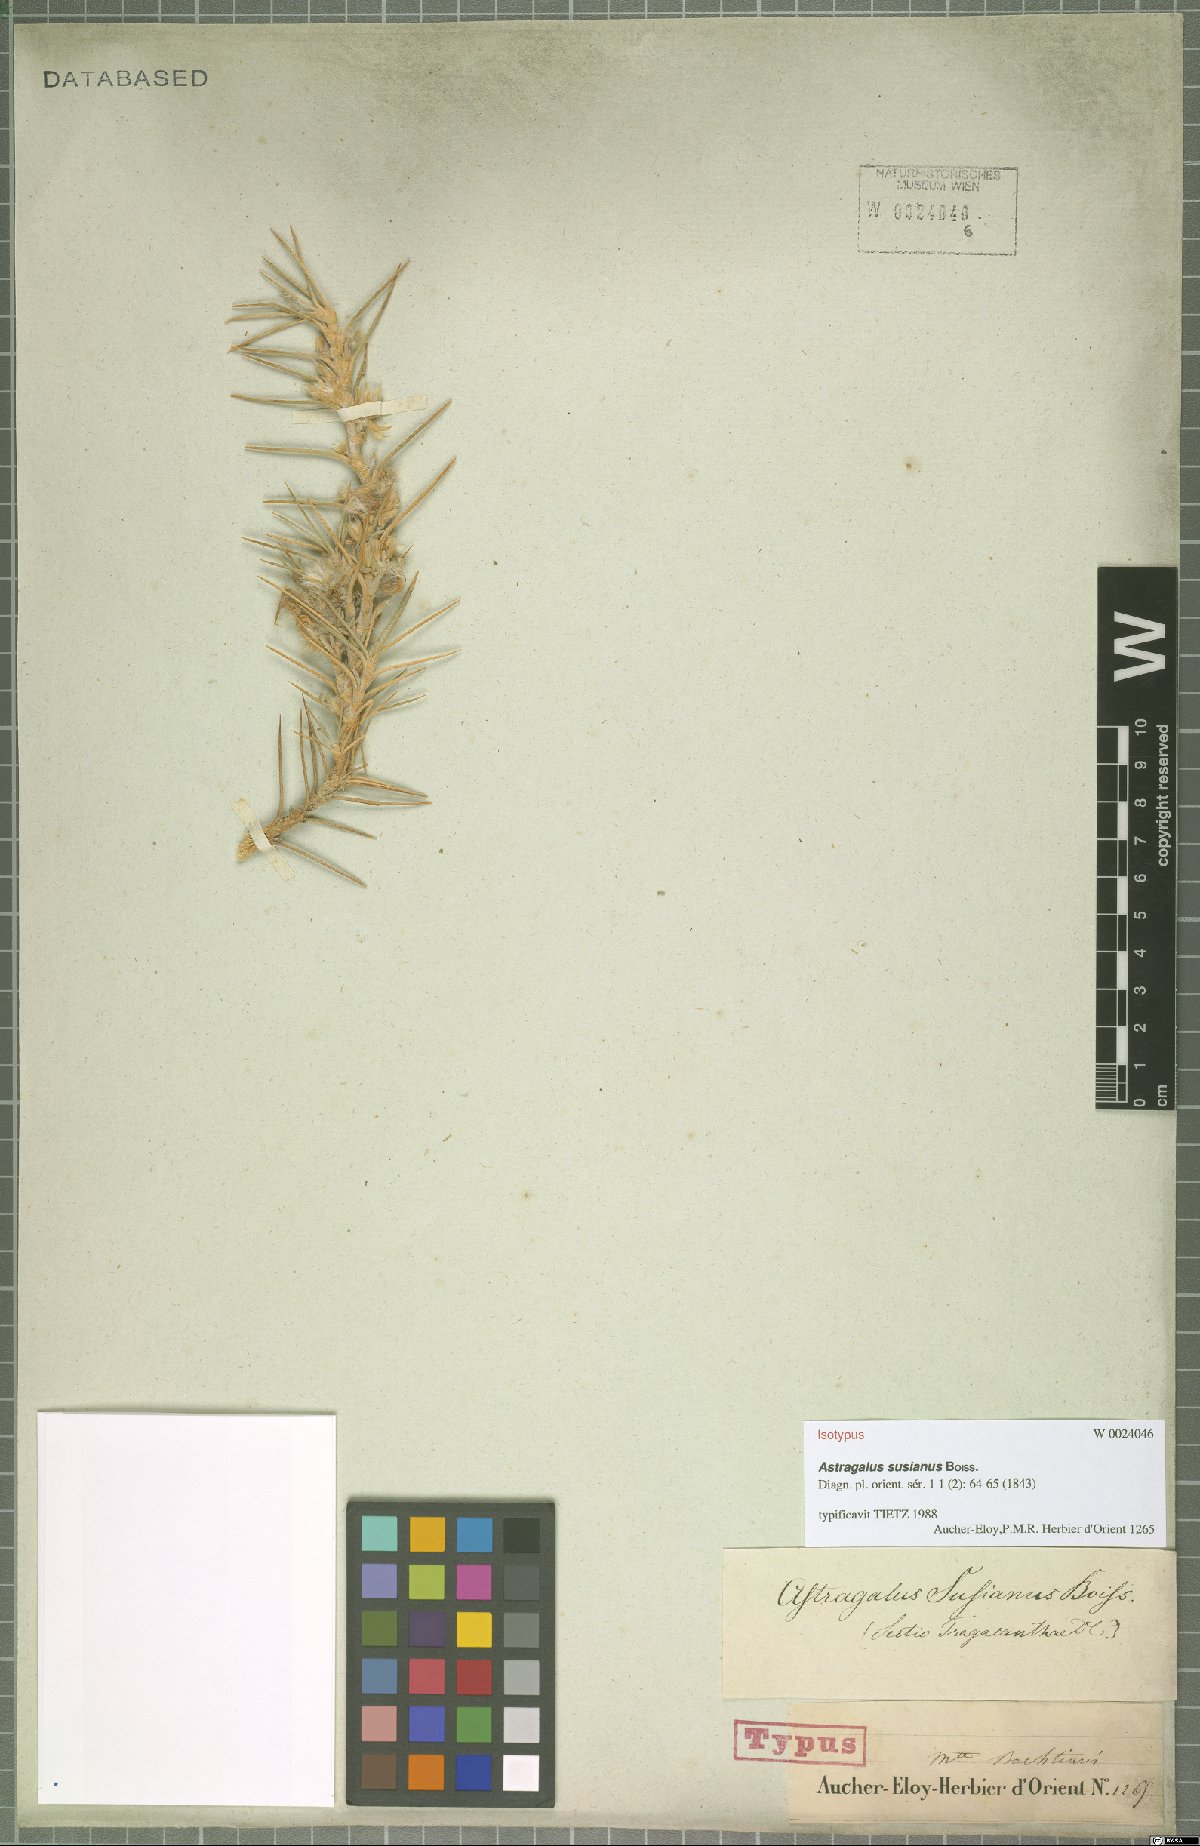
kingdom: Plantae
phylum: Tracheophyta
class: Magnoliopsida
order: Fabales
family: Fabaceae
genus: Astragalus
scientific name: Astragalus susianus
